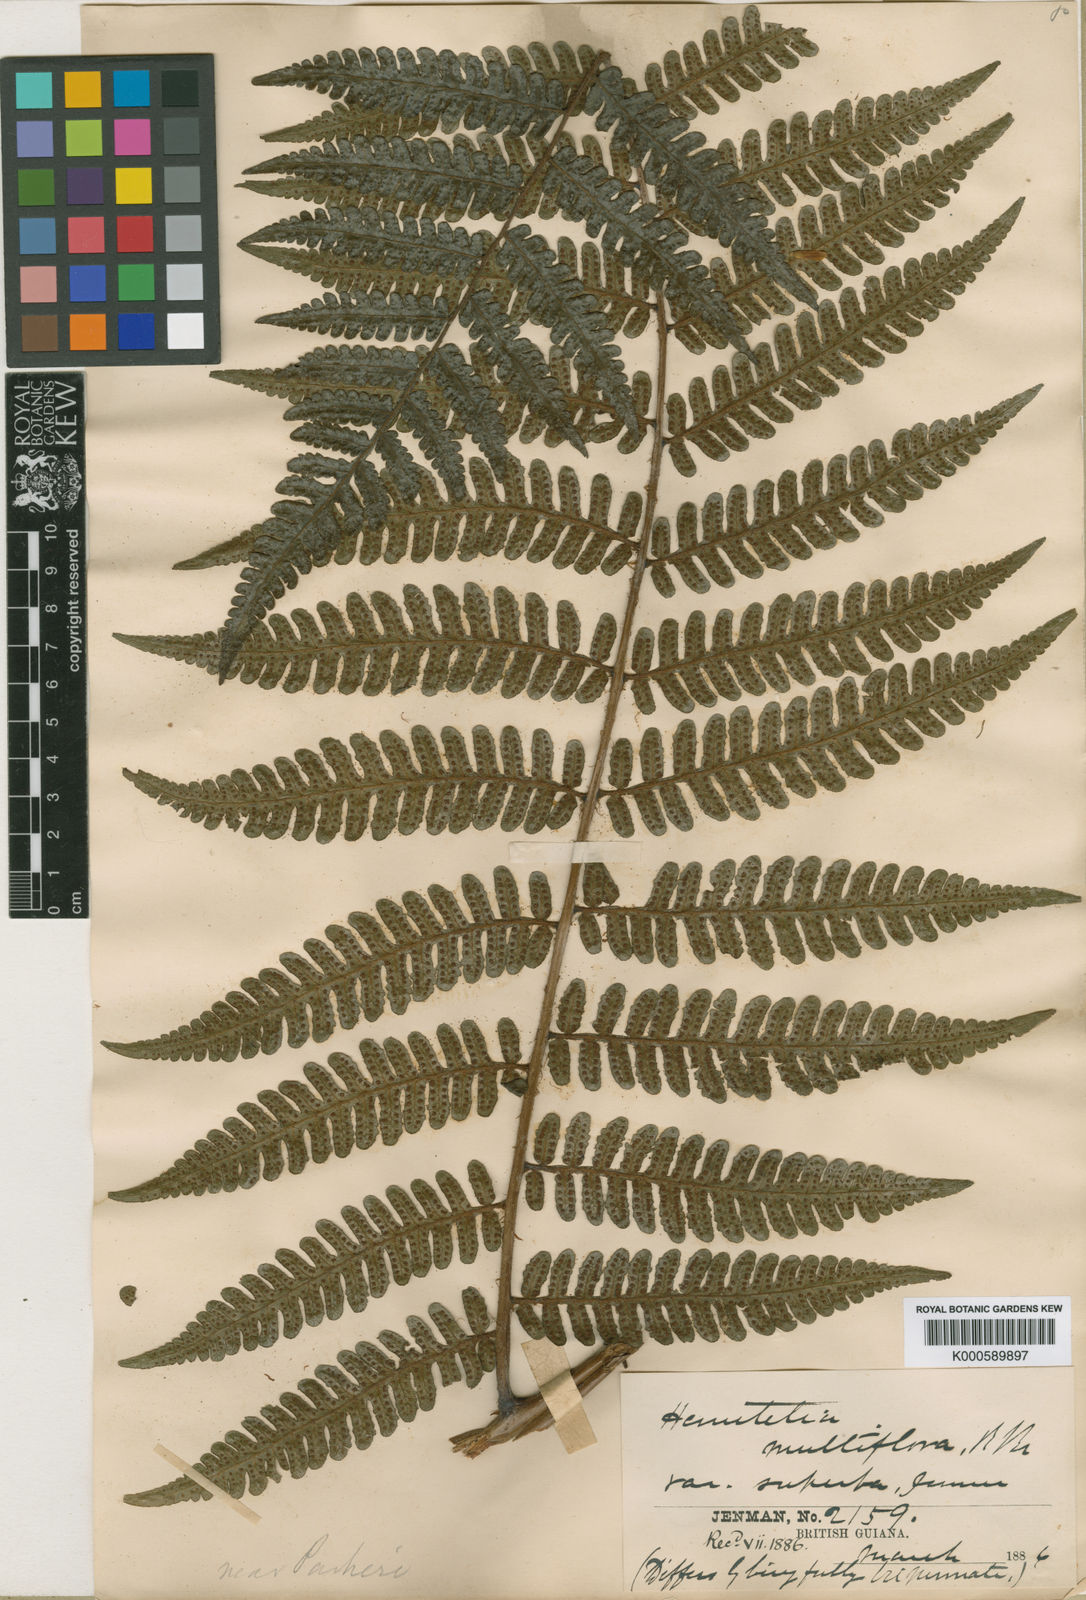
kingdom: Plantae
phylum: Tracheophyta
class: Polypodiopsida
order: Cyatheales
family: Cyatheaceae
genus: Cyathea
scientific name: Cyathea surinamensis
